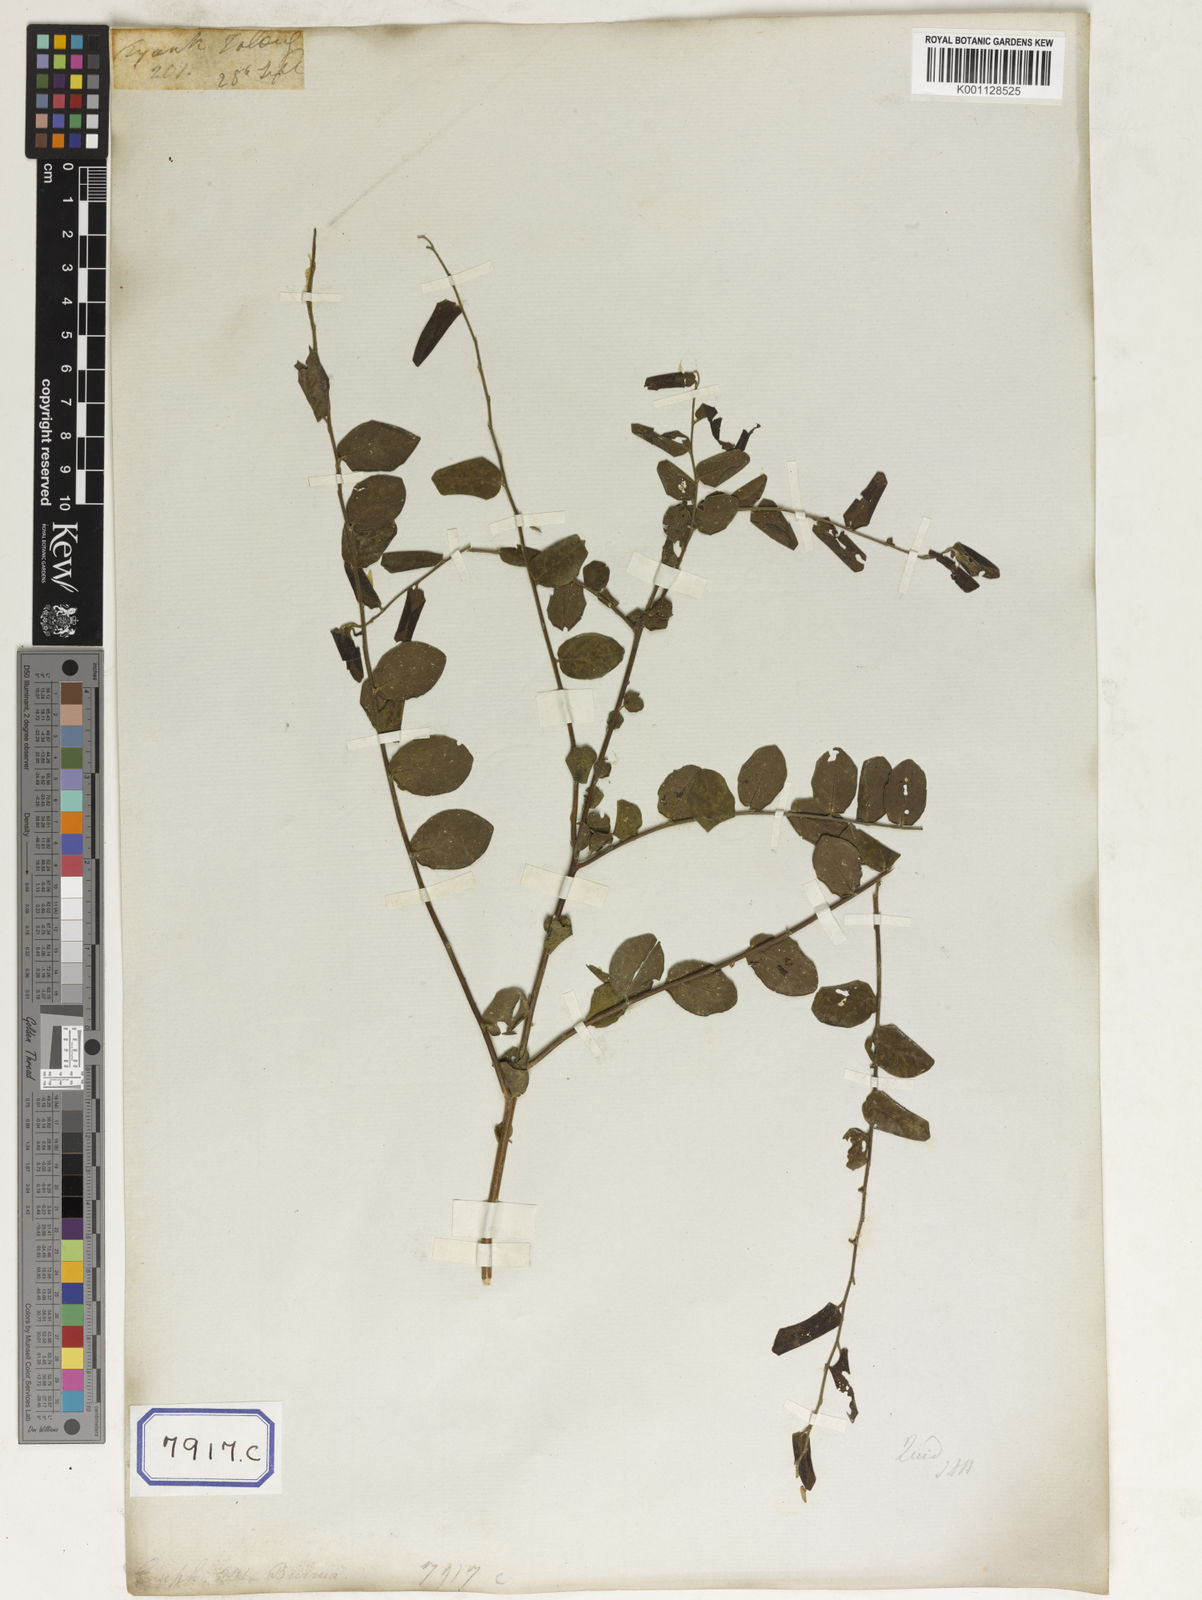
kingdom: Plantae
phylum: Tracheophyta
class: Magnoliopsida
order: Malpighiales
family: Phyllanthaceae
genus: Phyllanthus
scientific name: Phyllanthus
